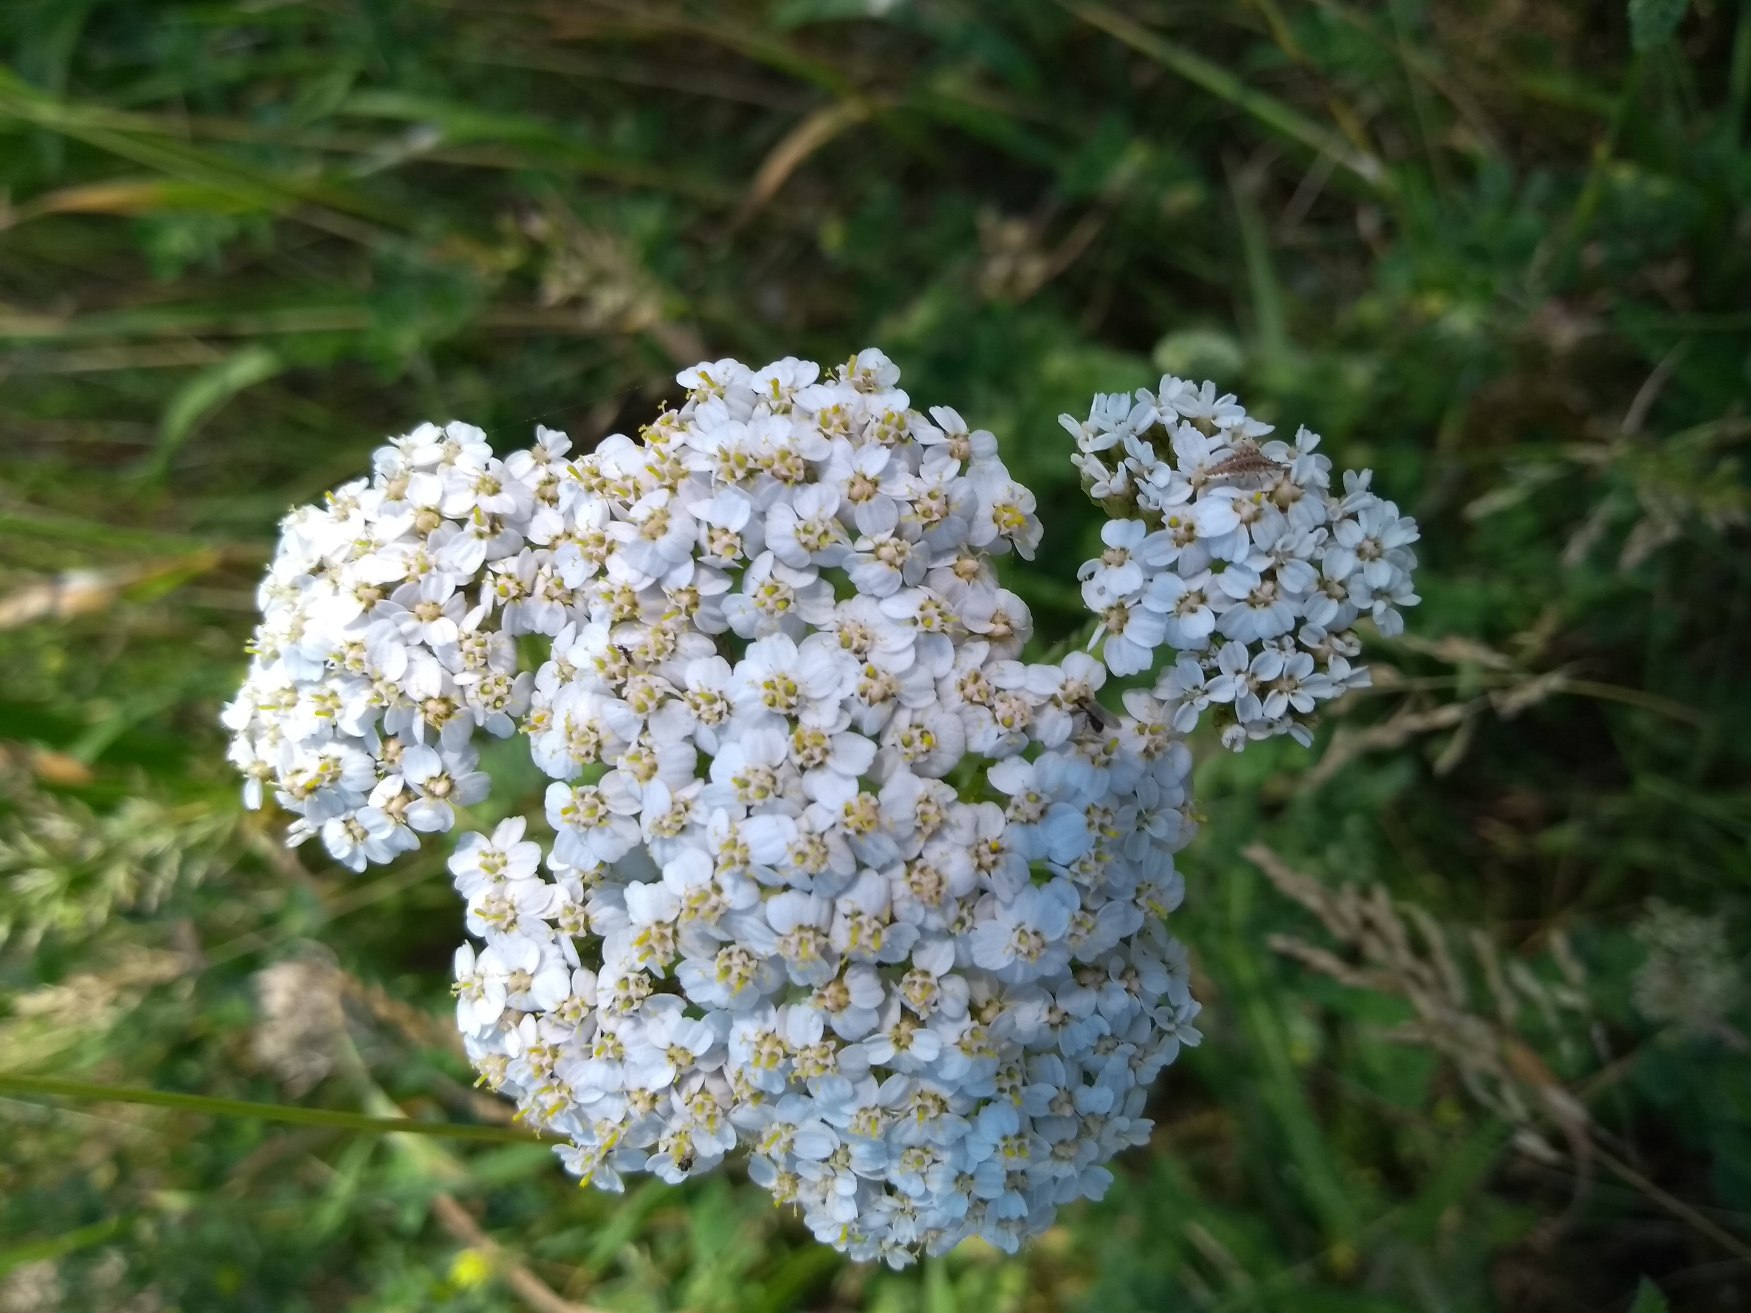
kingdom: Plantae
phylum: Tracheophyta
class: Magnoliopsida
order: Asterales
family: Asteraceae
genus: Achillea
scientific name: Achillea millefolium
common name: Almindelig røllike
